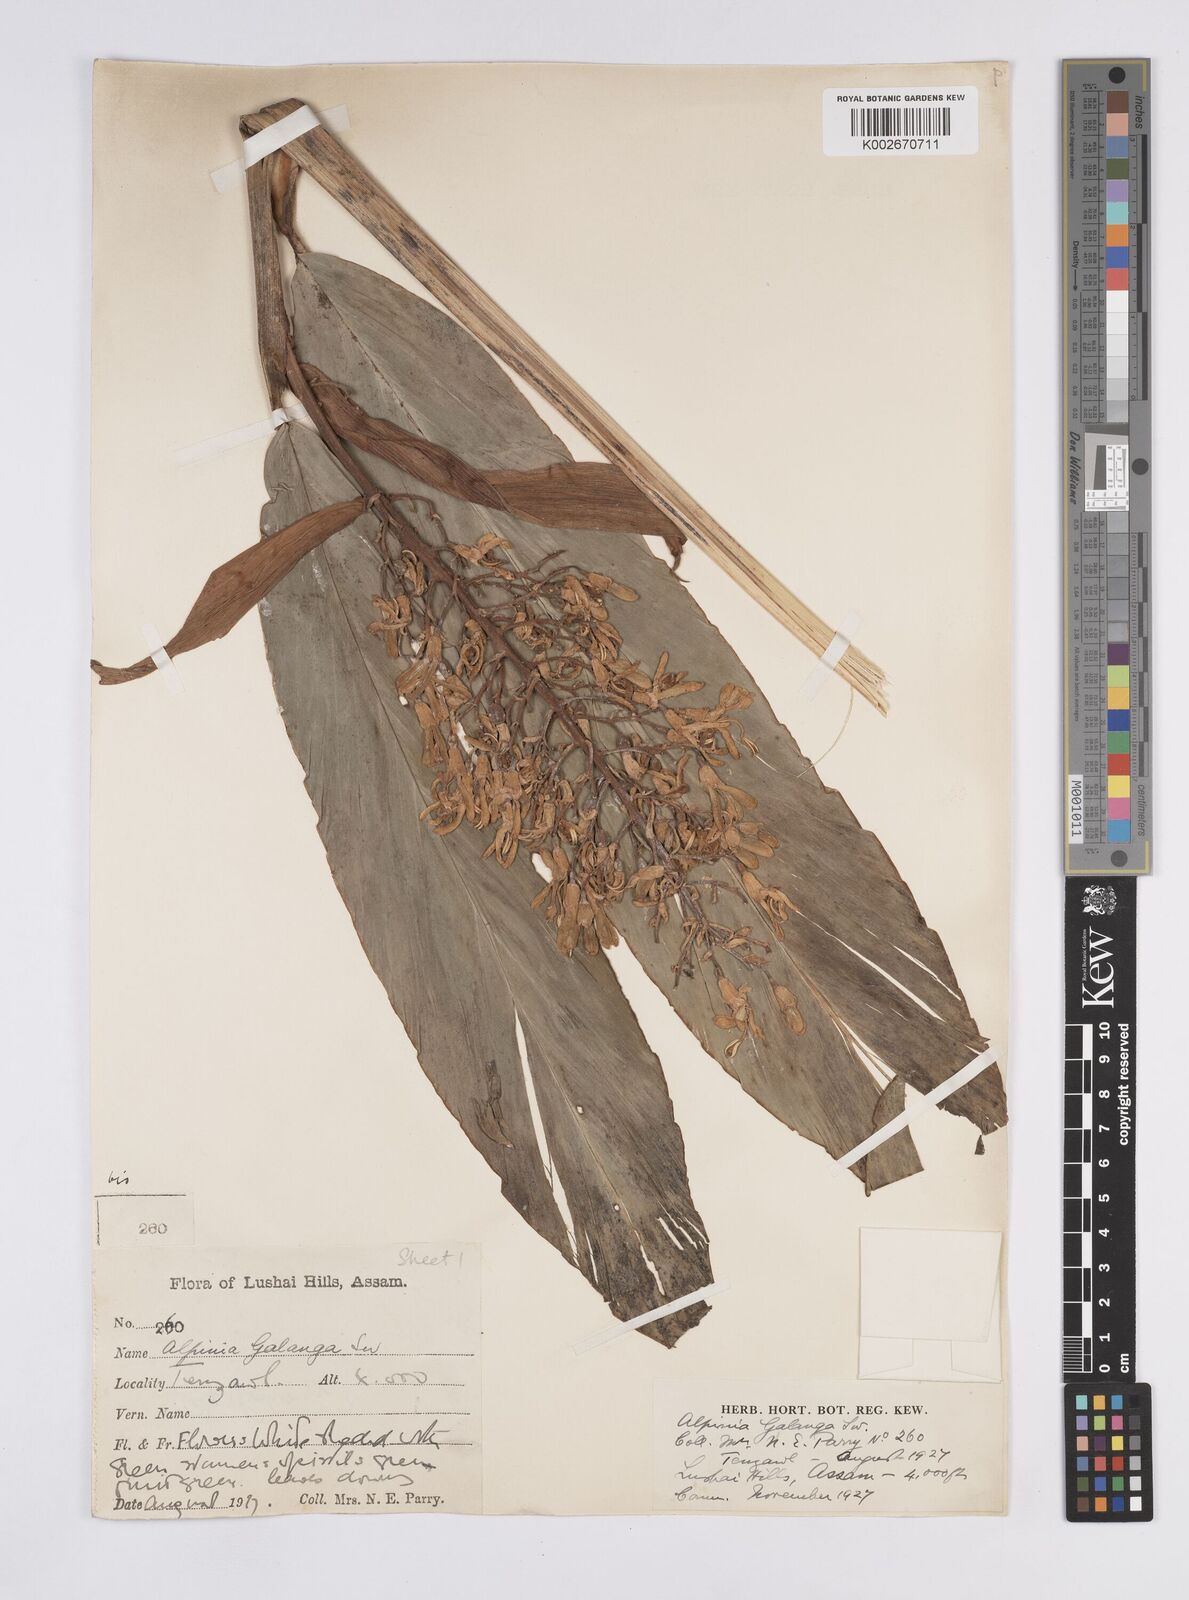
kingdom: Plantae
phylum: Tracheophyta
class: Liliopsida
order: Zingiberales
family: Zingiberaceae
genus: Alpinia
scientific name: Alpinia galanga
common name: Siamese-ginger
